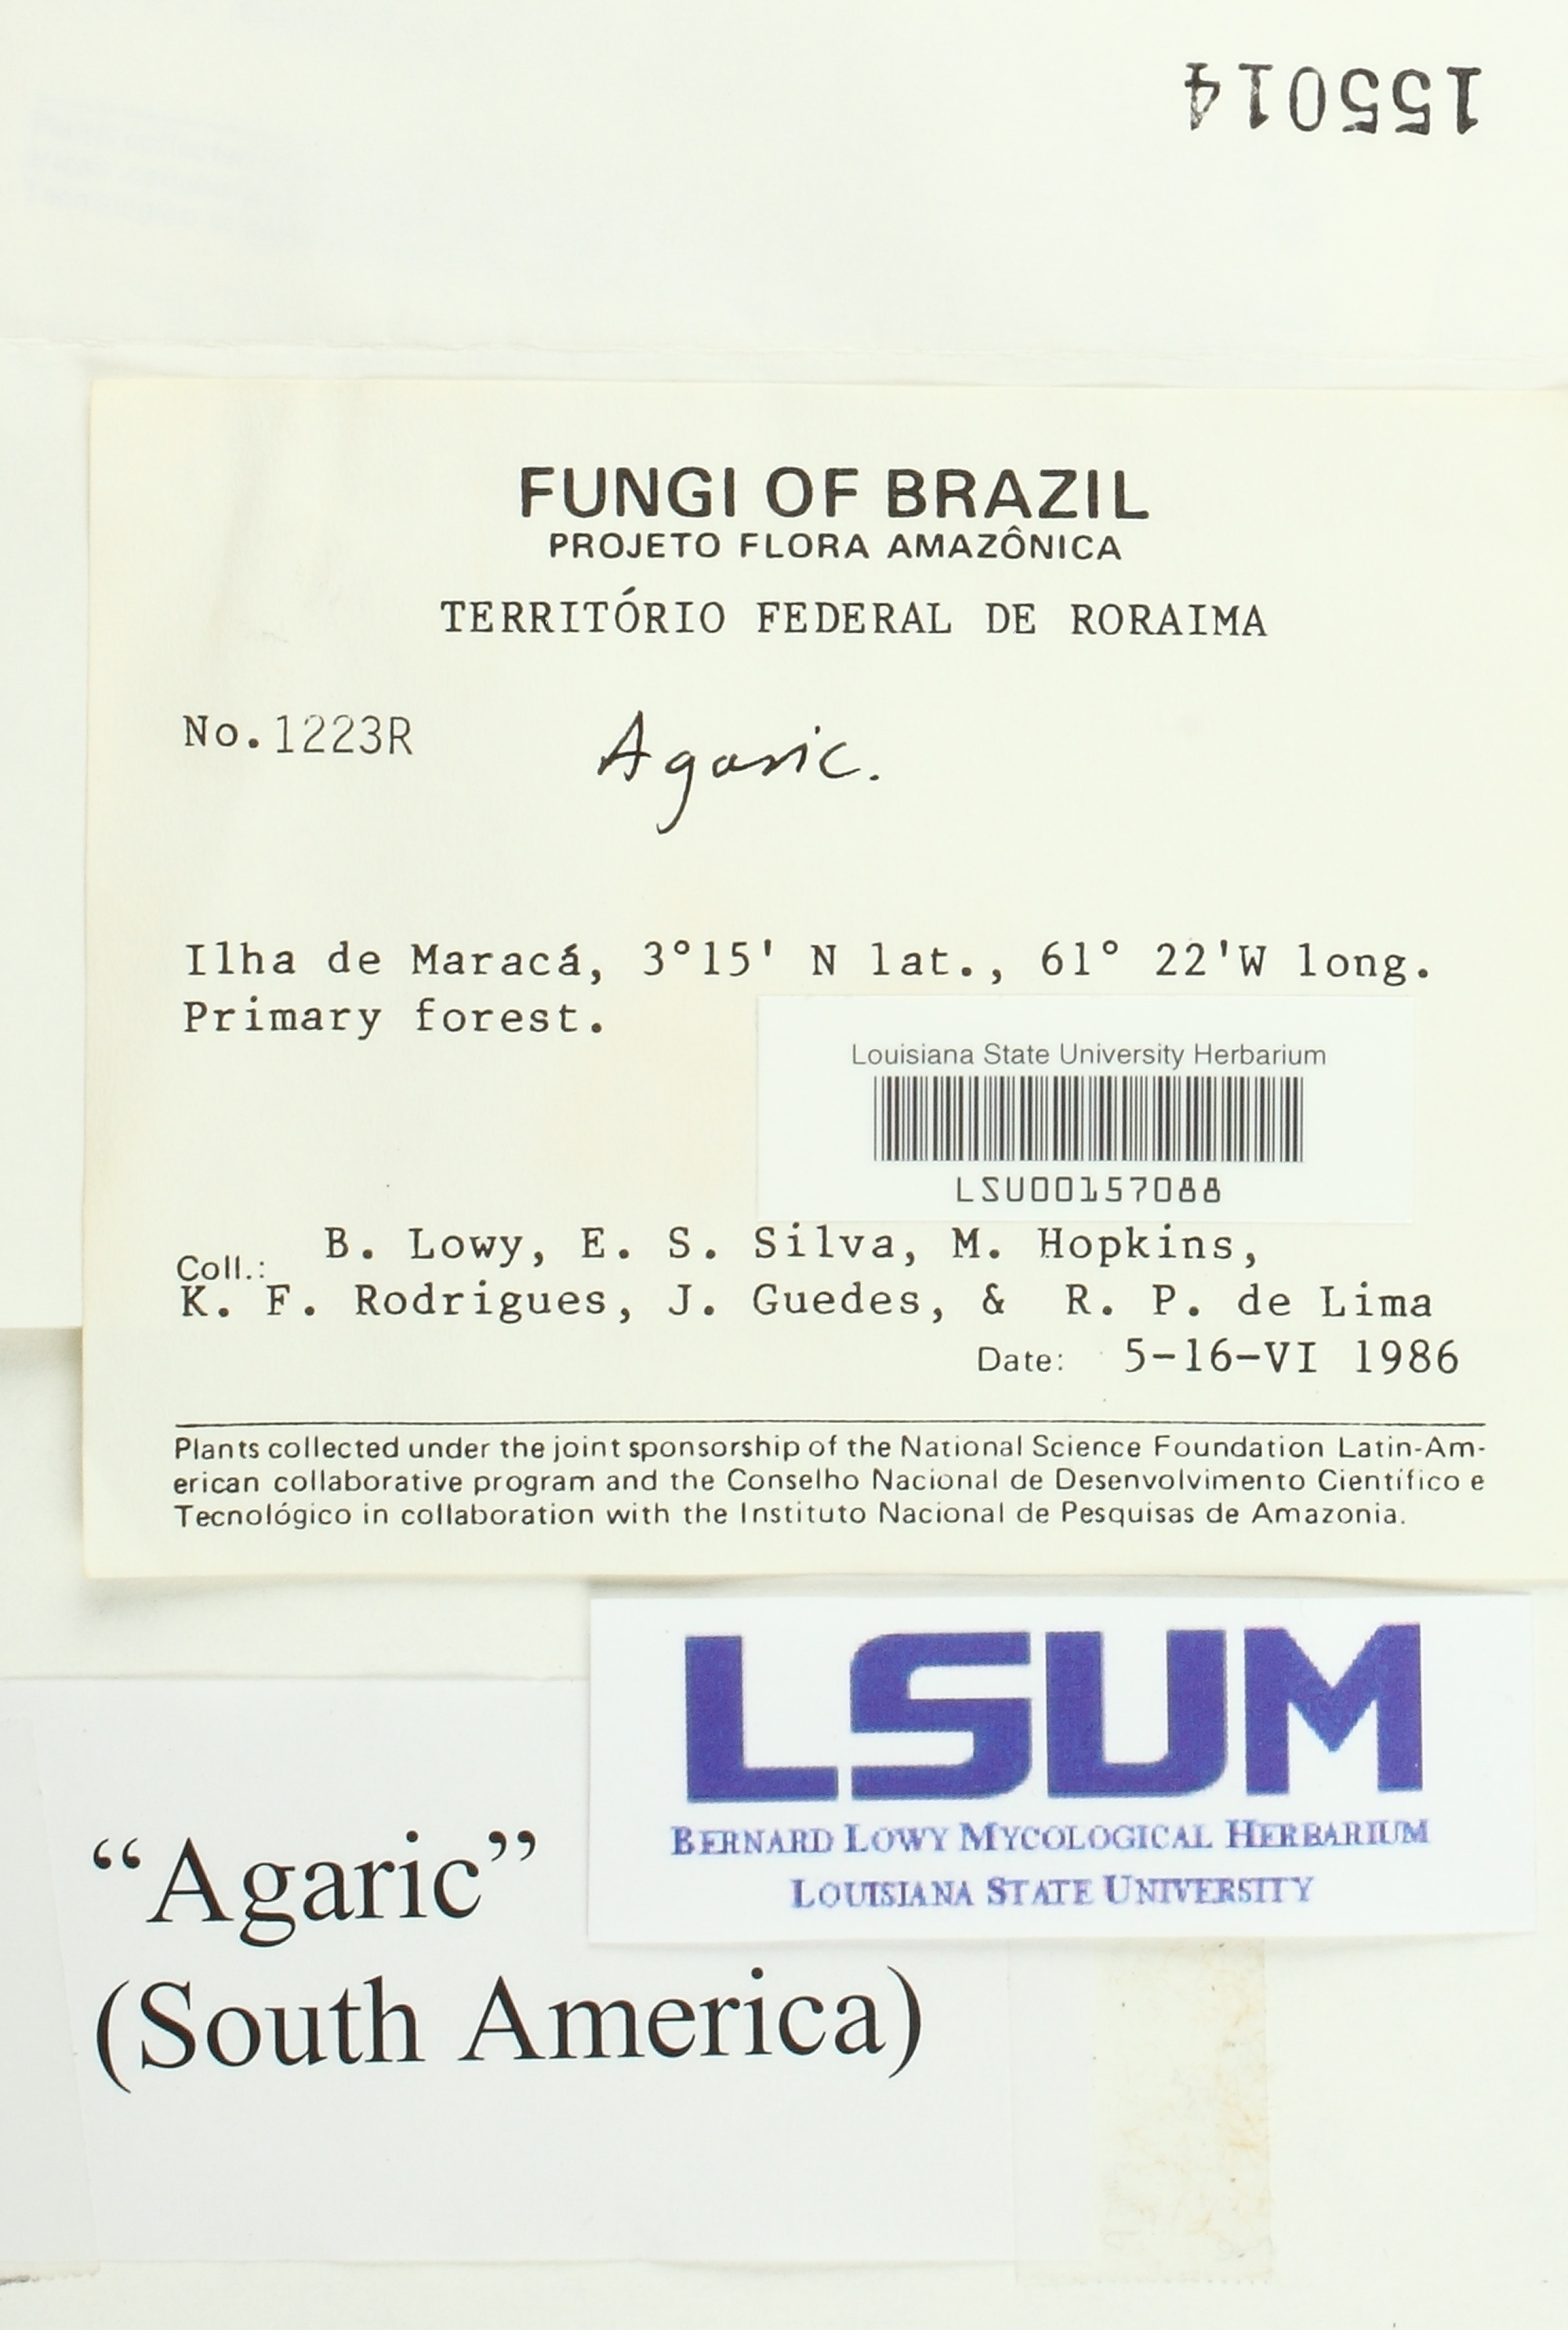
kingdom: Fungi
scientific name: Fungi
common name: Fungi
